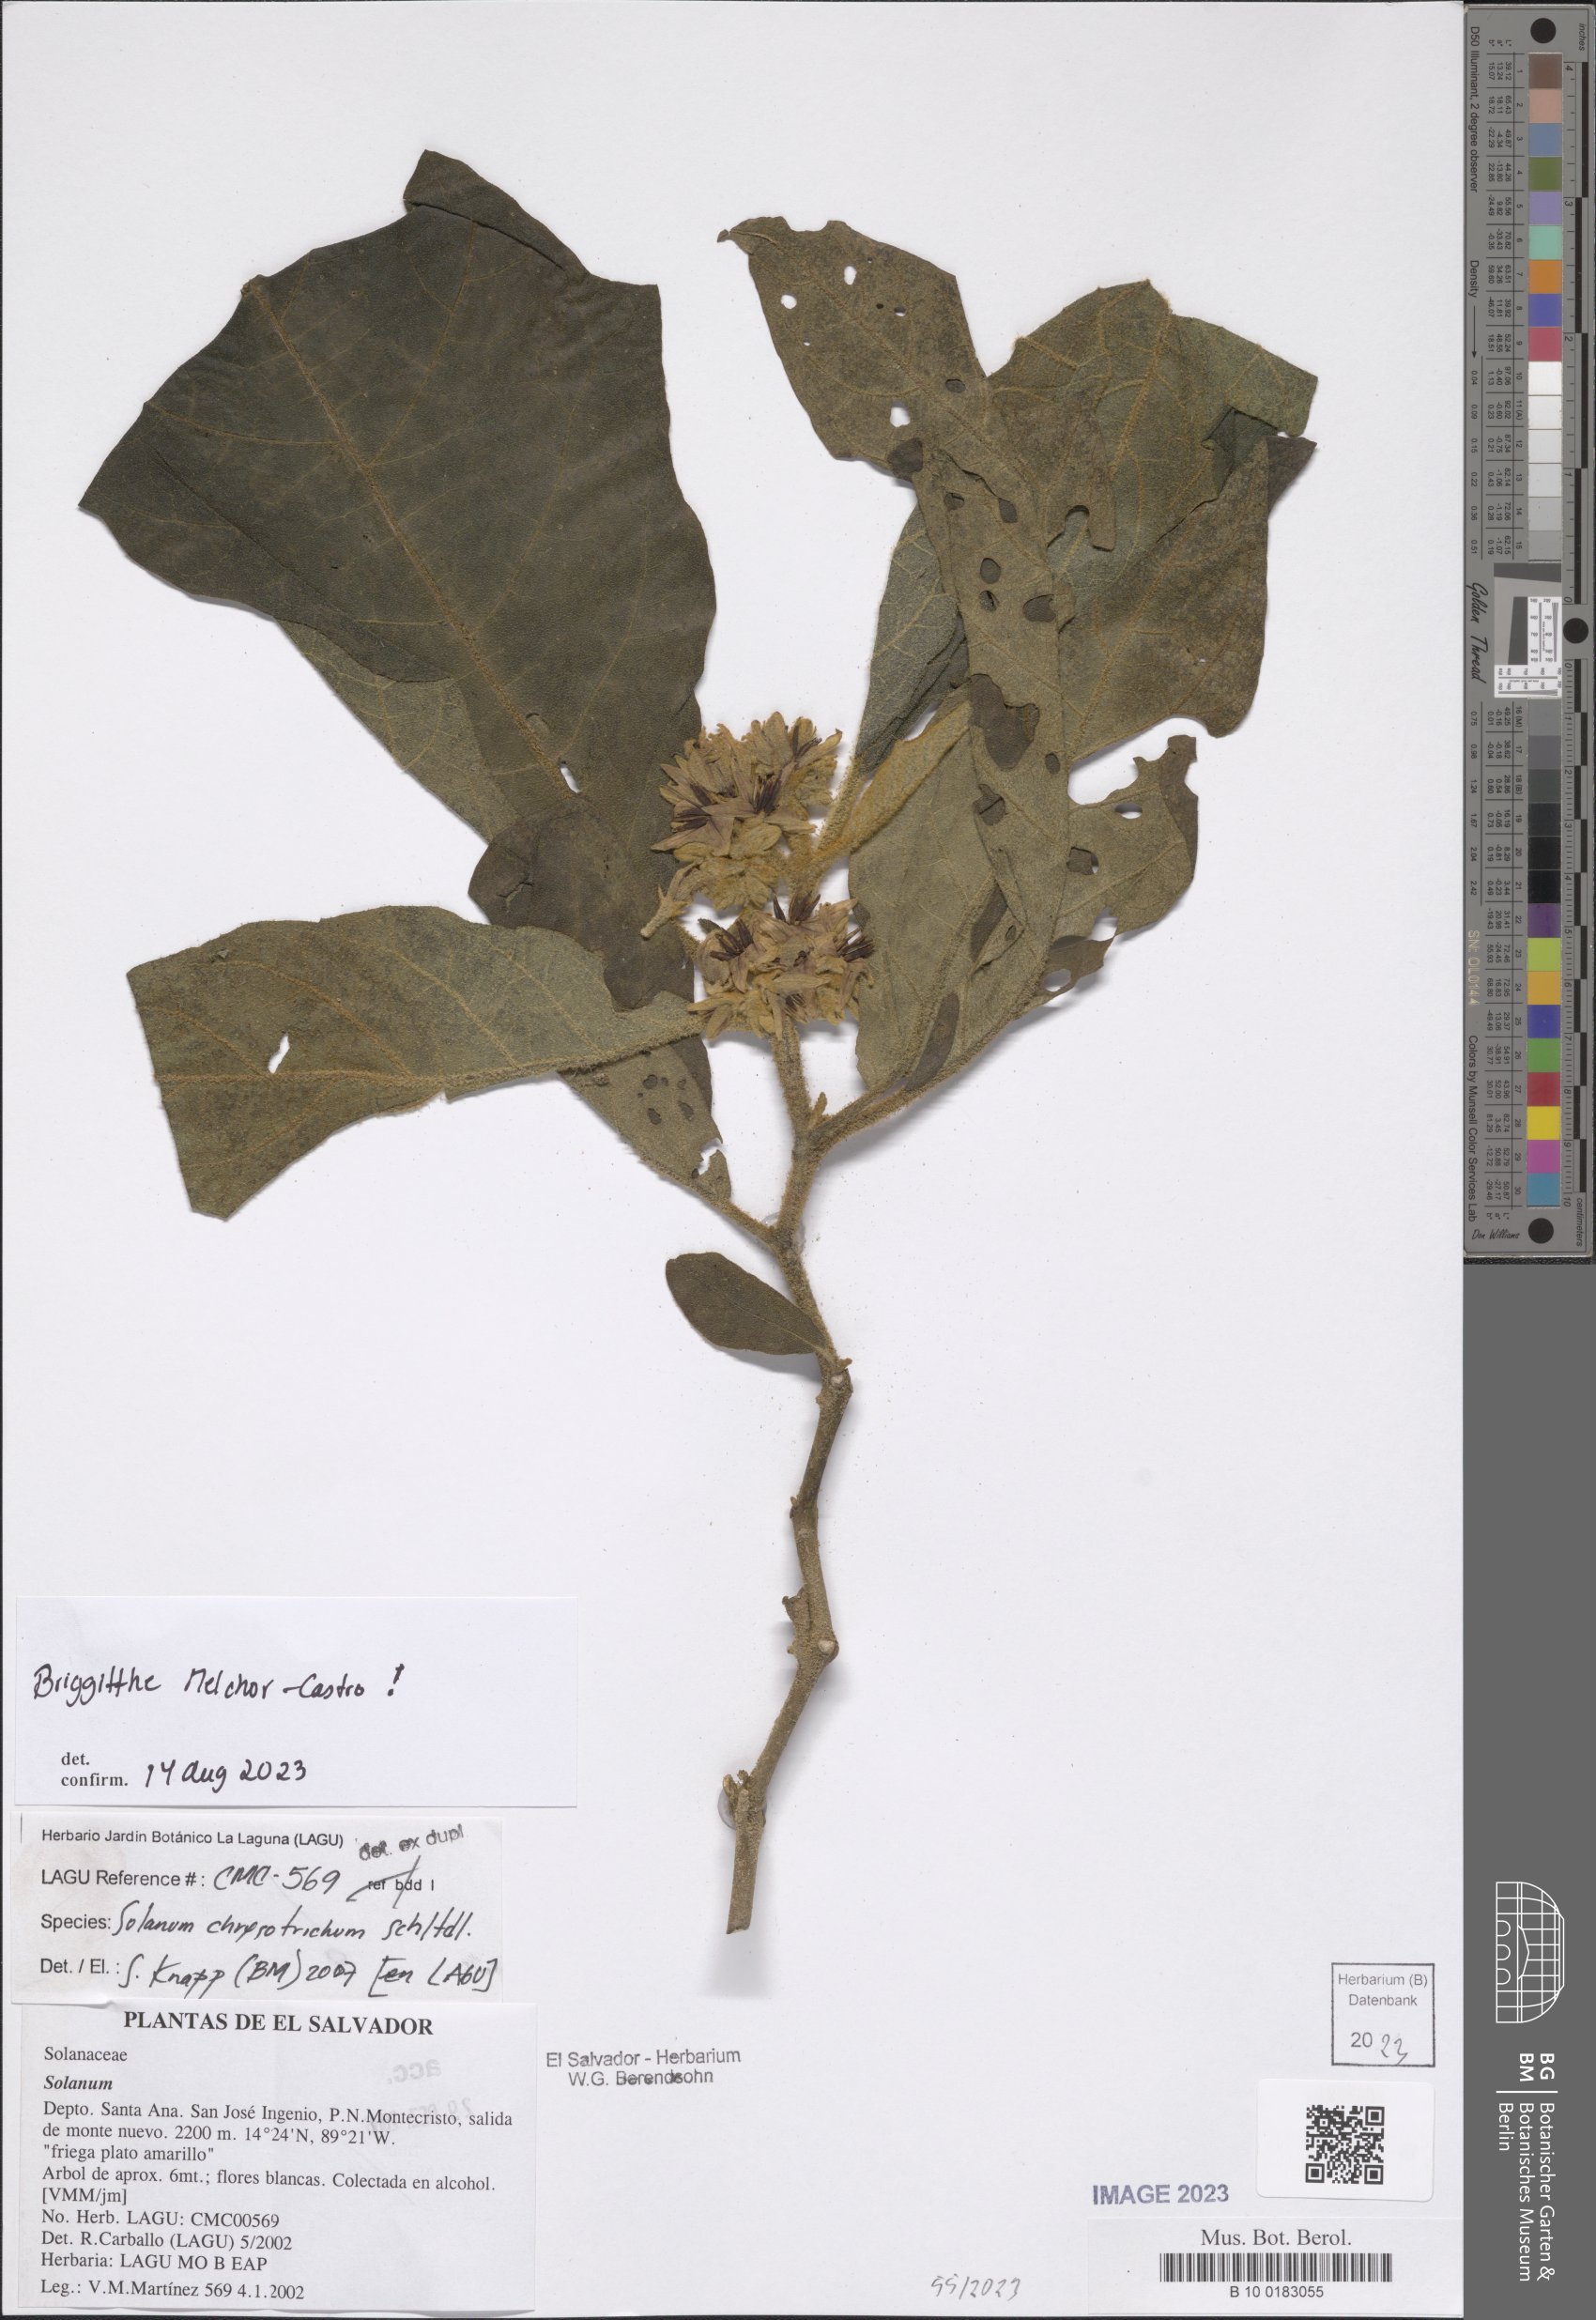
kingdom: Plantae
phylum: Tracheophyta
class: Magnoliopsida
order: Solanales
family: Solanaceae
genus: Solanum
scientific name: Solanum chrysotrichum
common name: Nightshade
